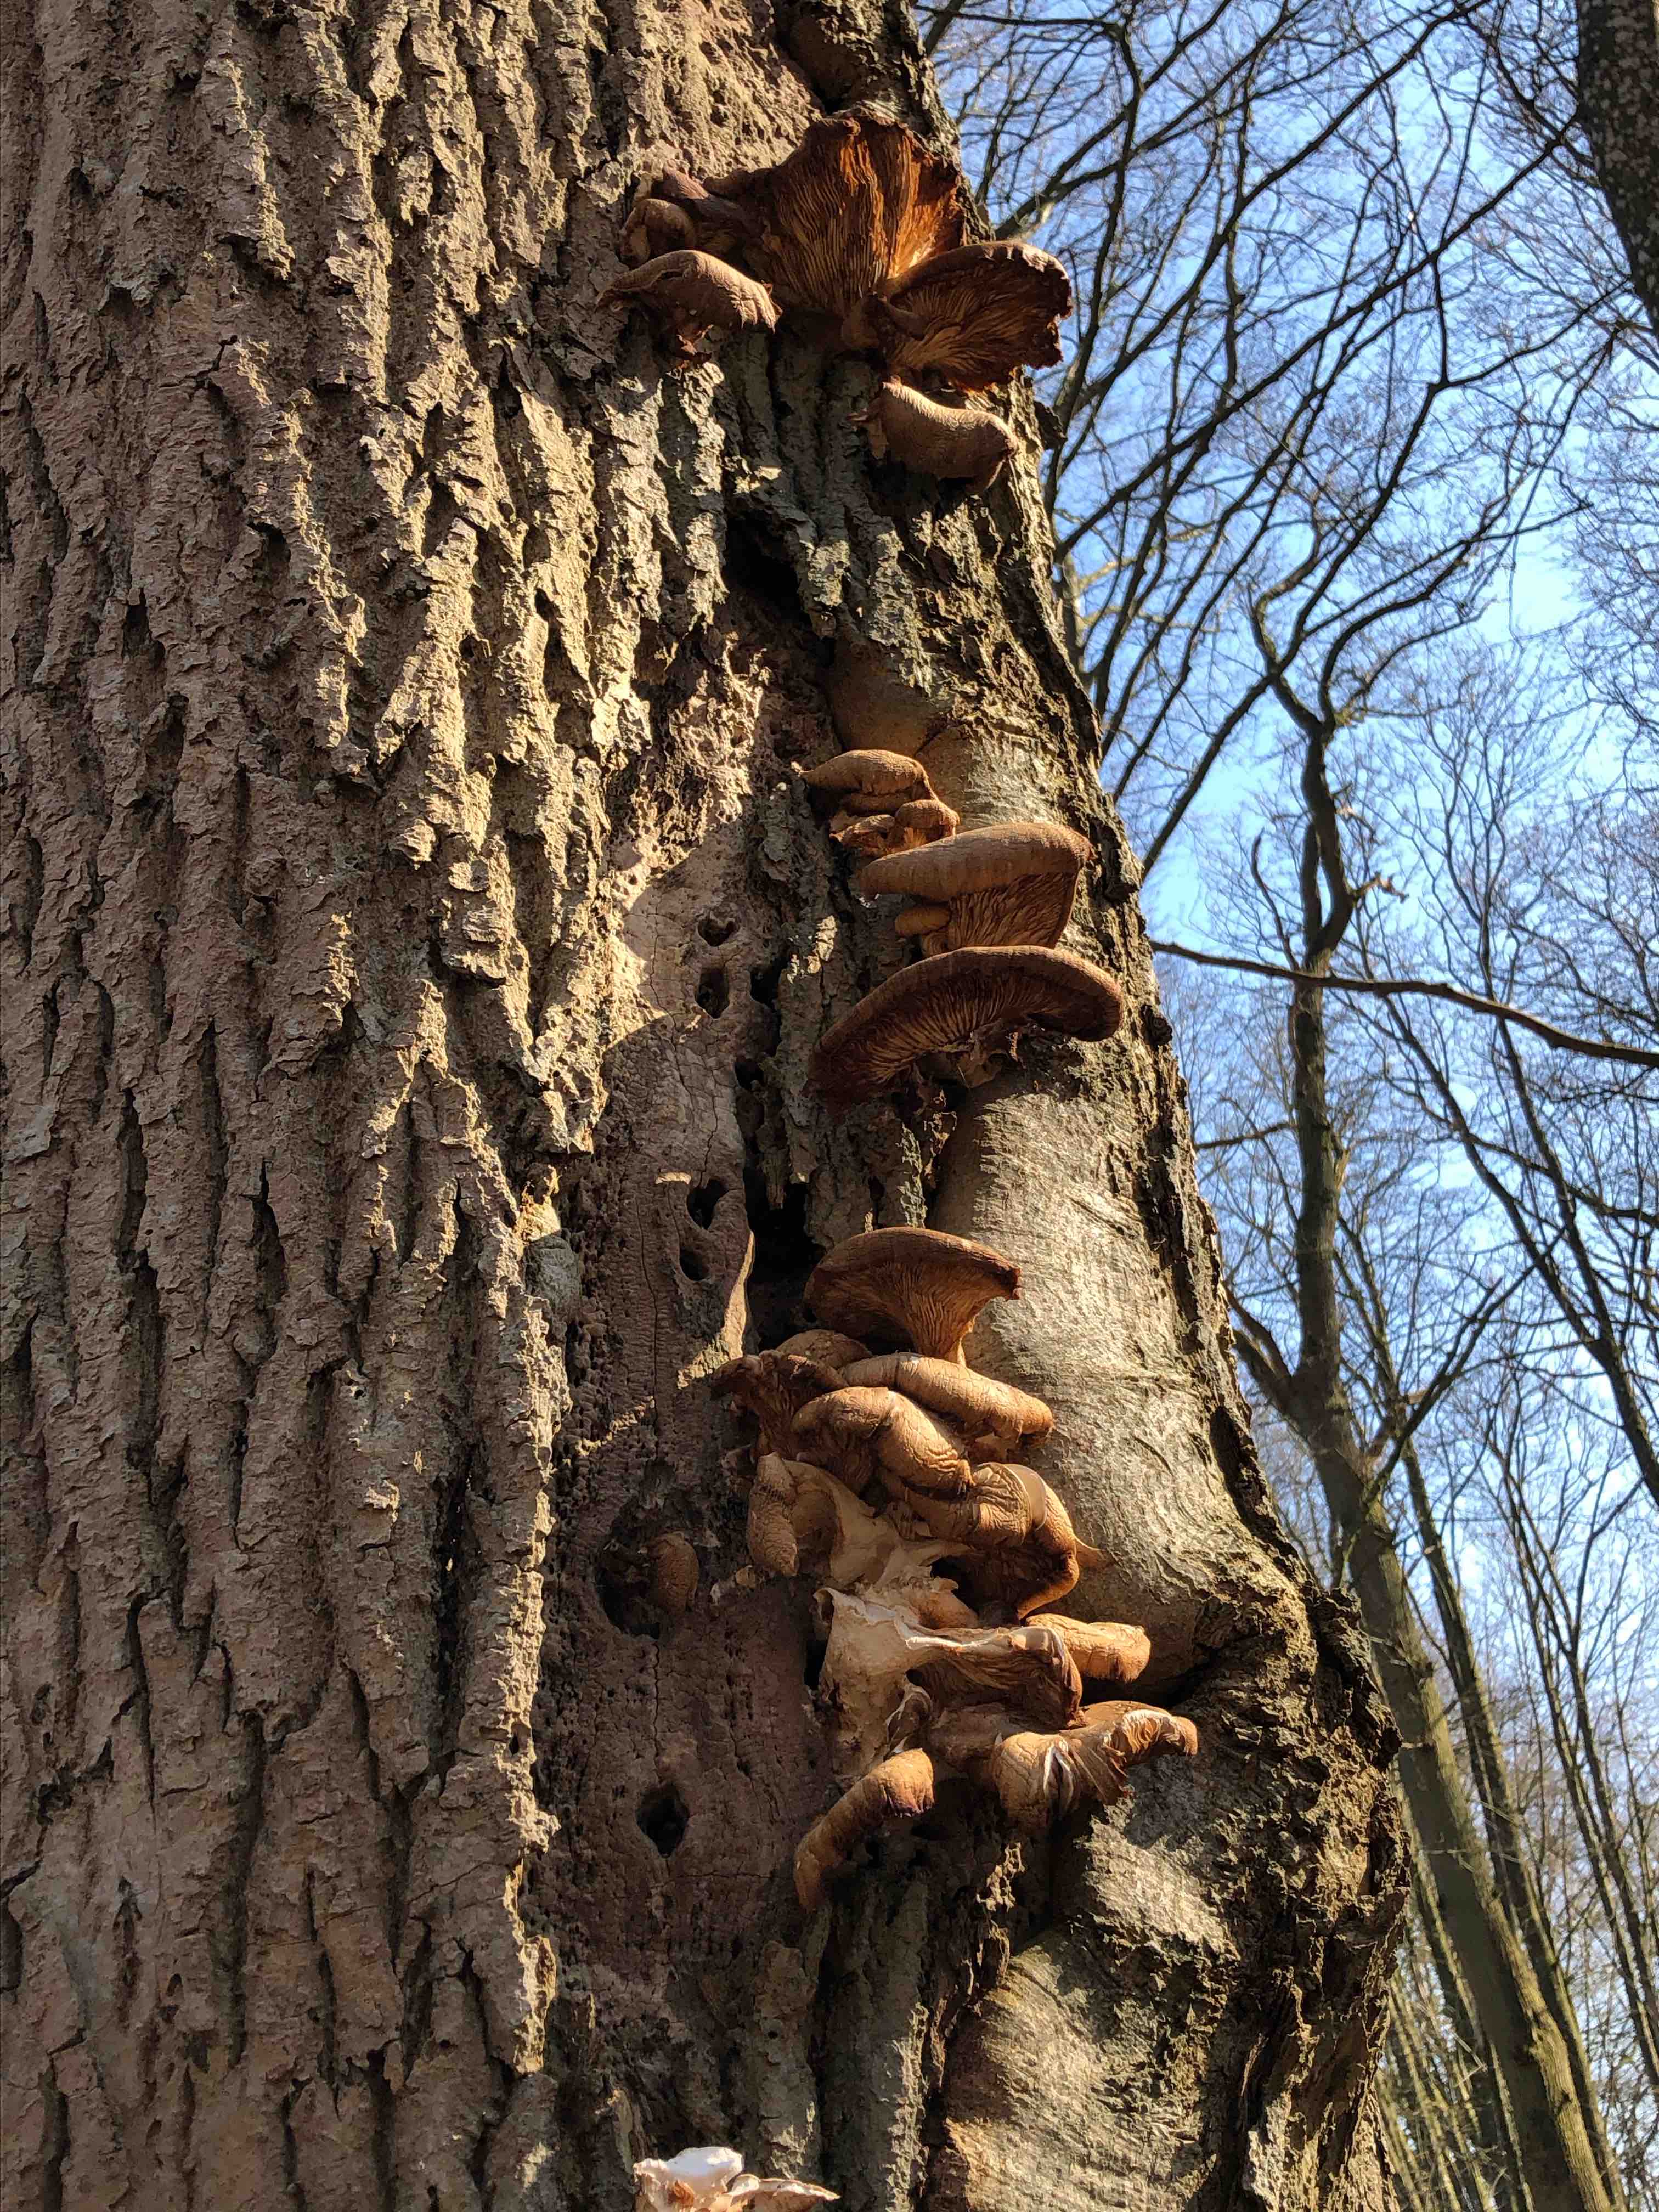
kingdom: Fungi
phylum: Basidiomycota
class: Agaricomycetes
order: Agaricales
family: Pleurotaceae
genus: Pleurotus
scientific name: Pleurotus ostreatus
